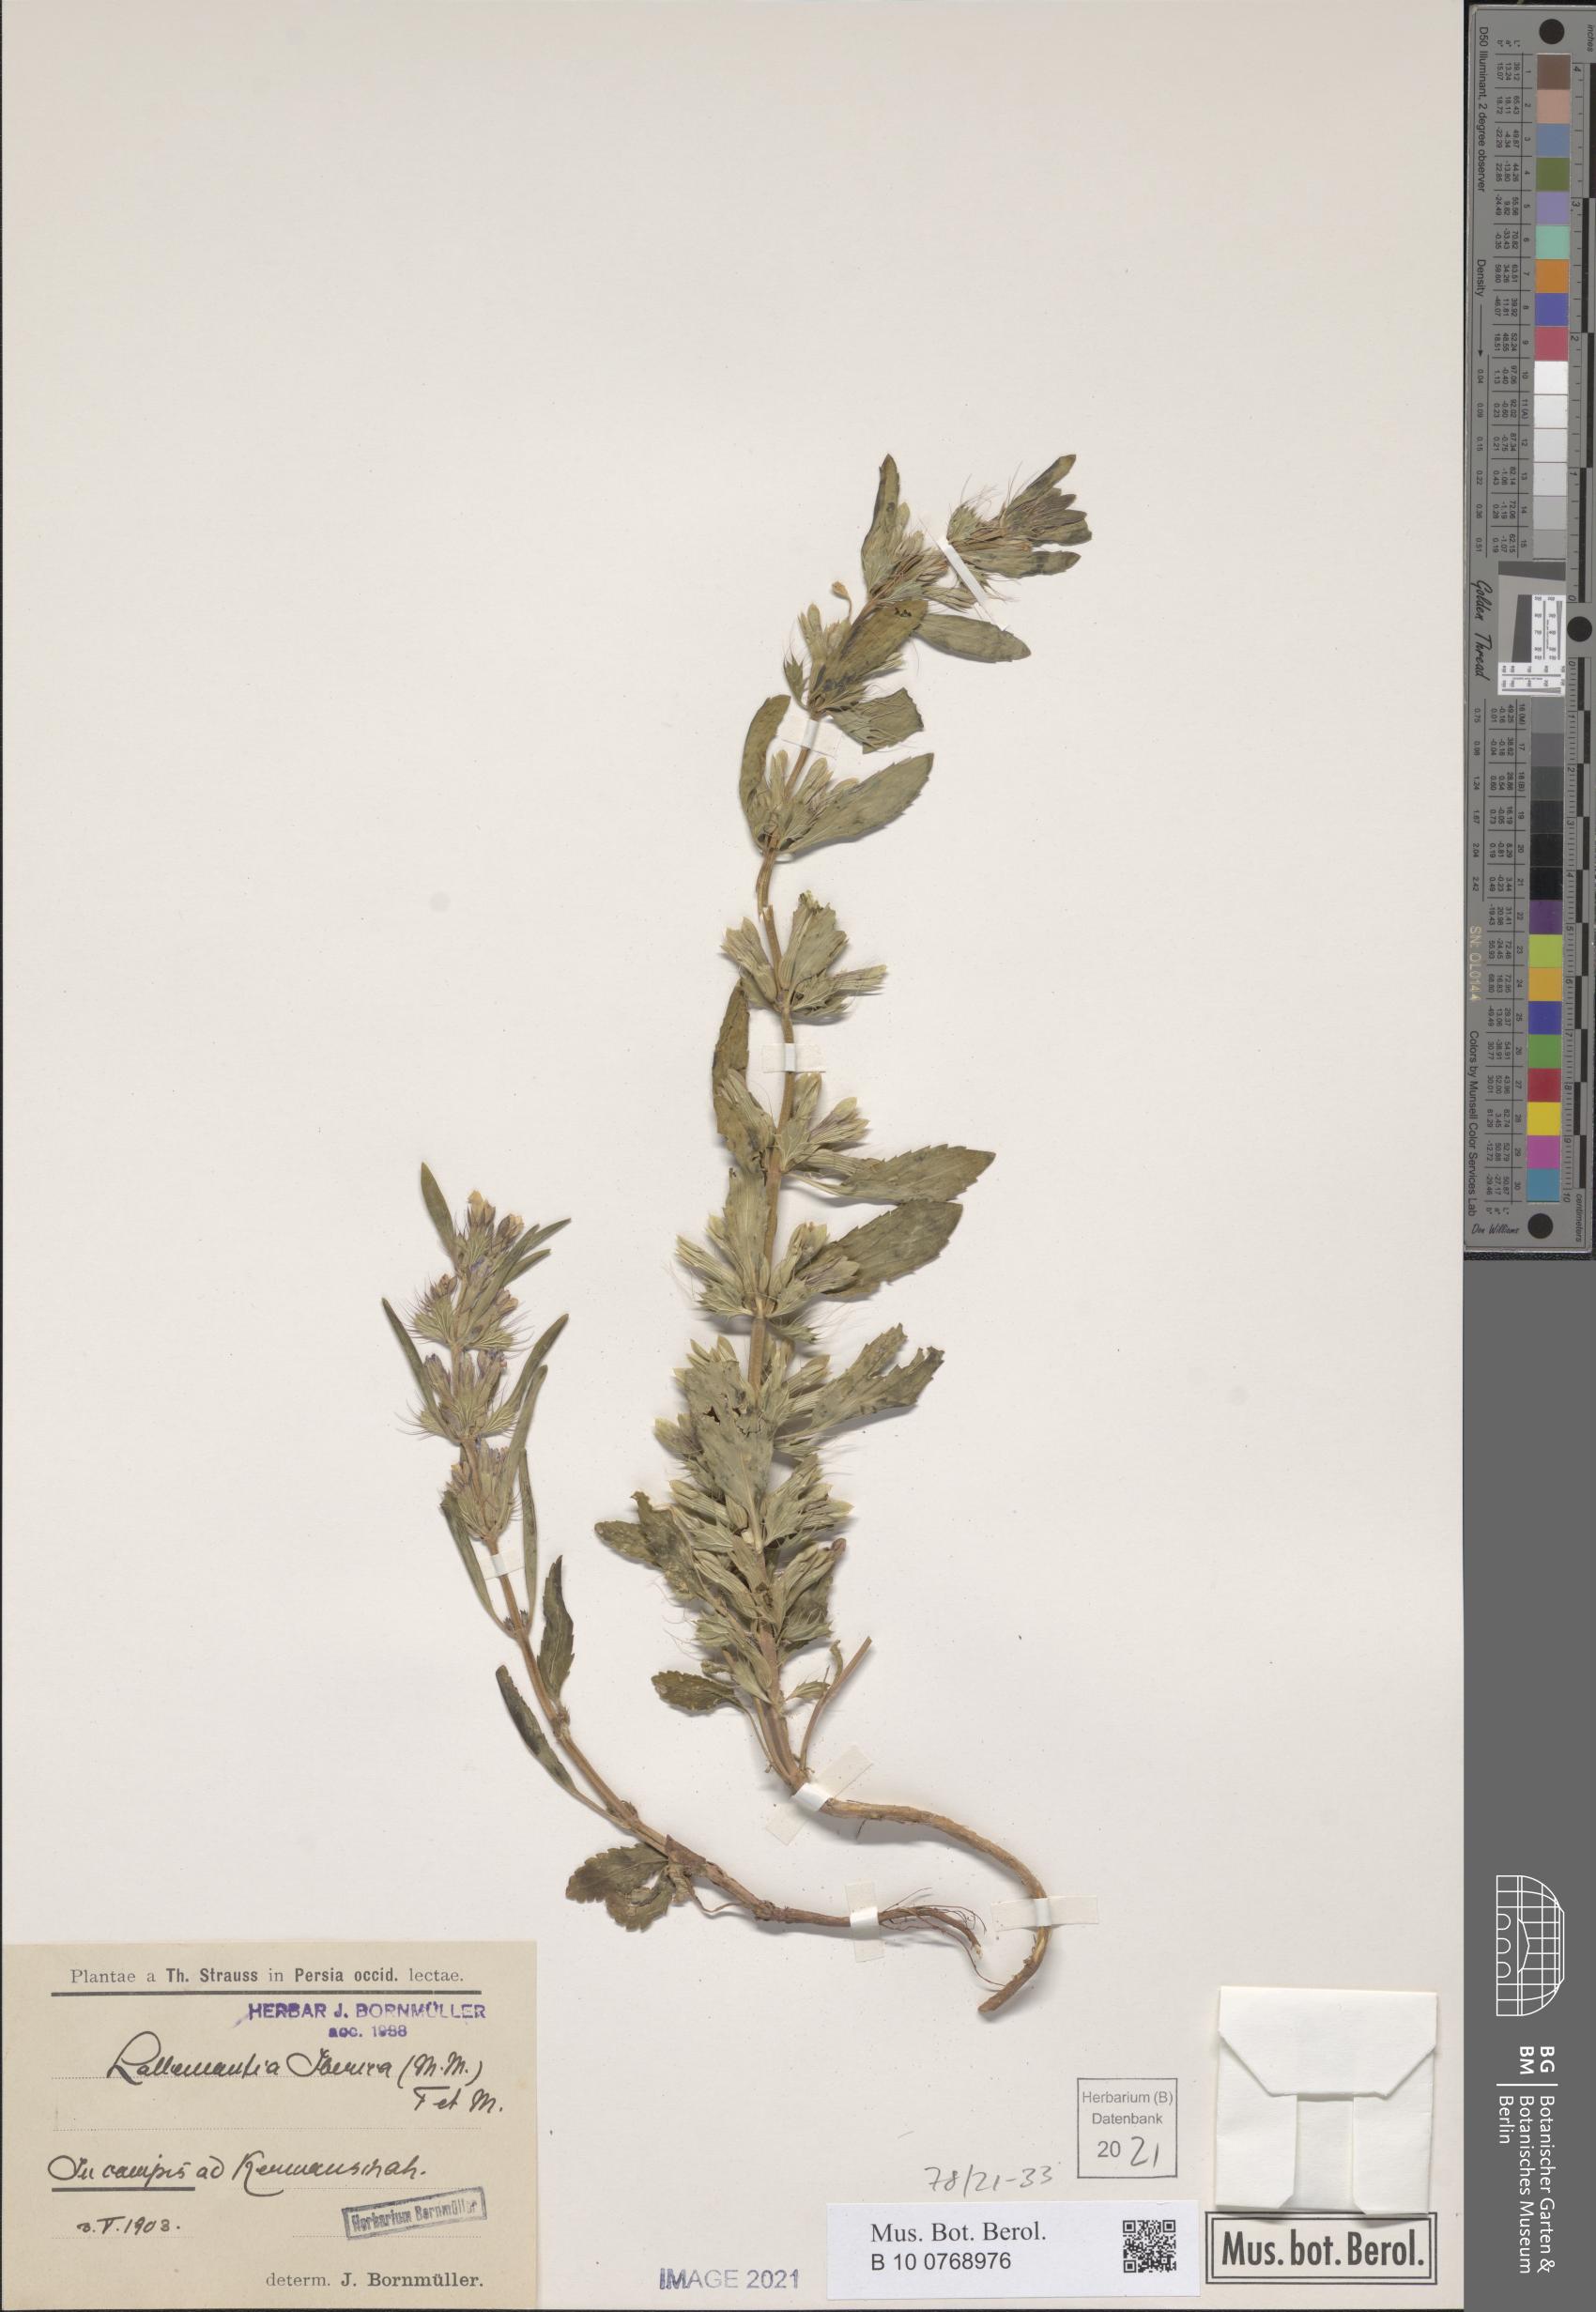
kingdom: Plantae
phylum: Tracheophyta
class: Magnoliopsida
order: Lamiales
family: Lamiaceae
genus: Lallemantia
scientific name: Lallemantia iberica
